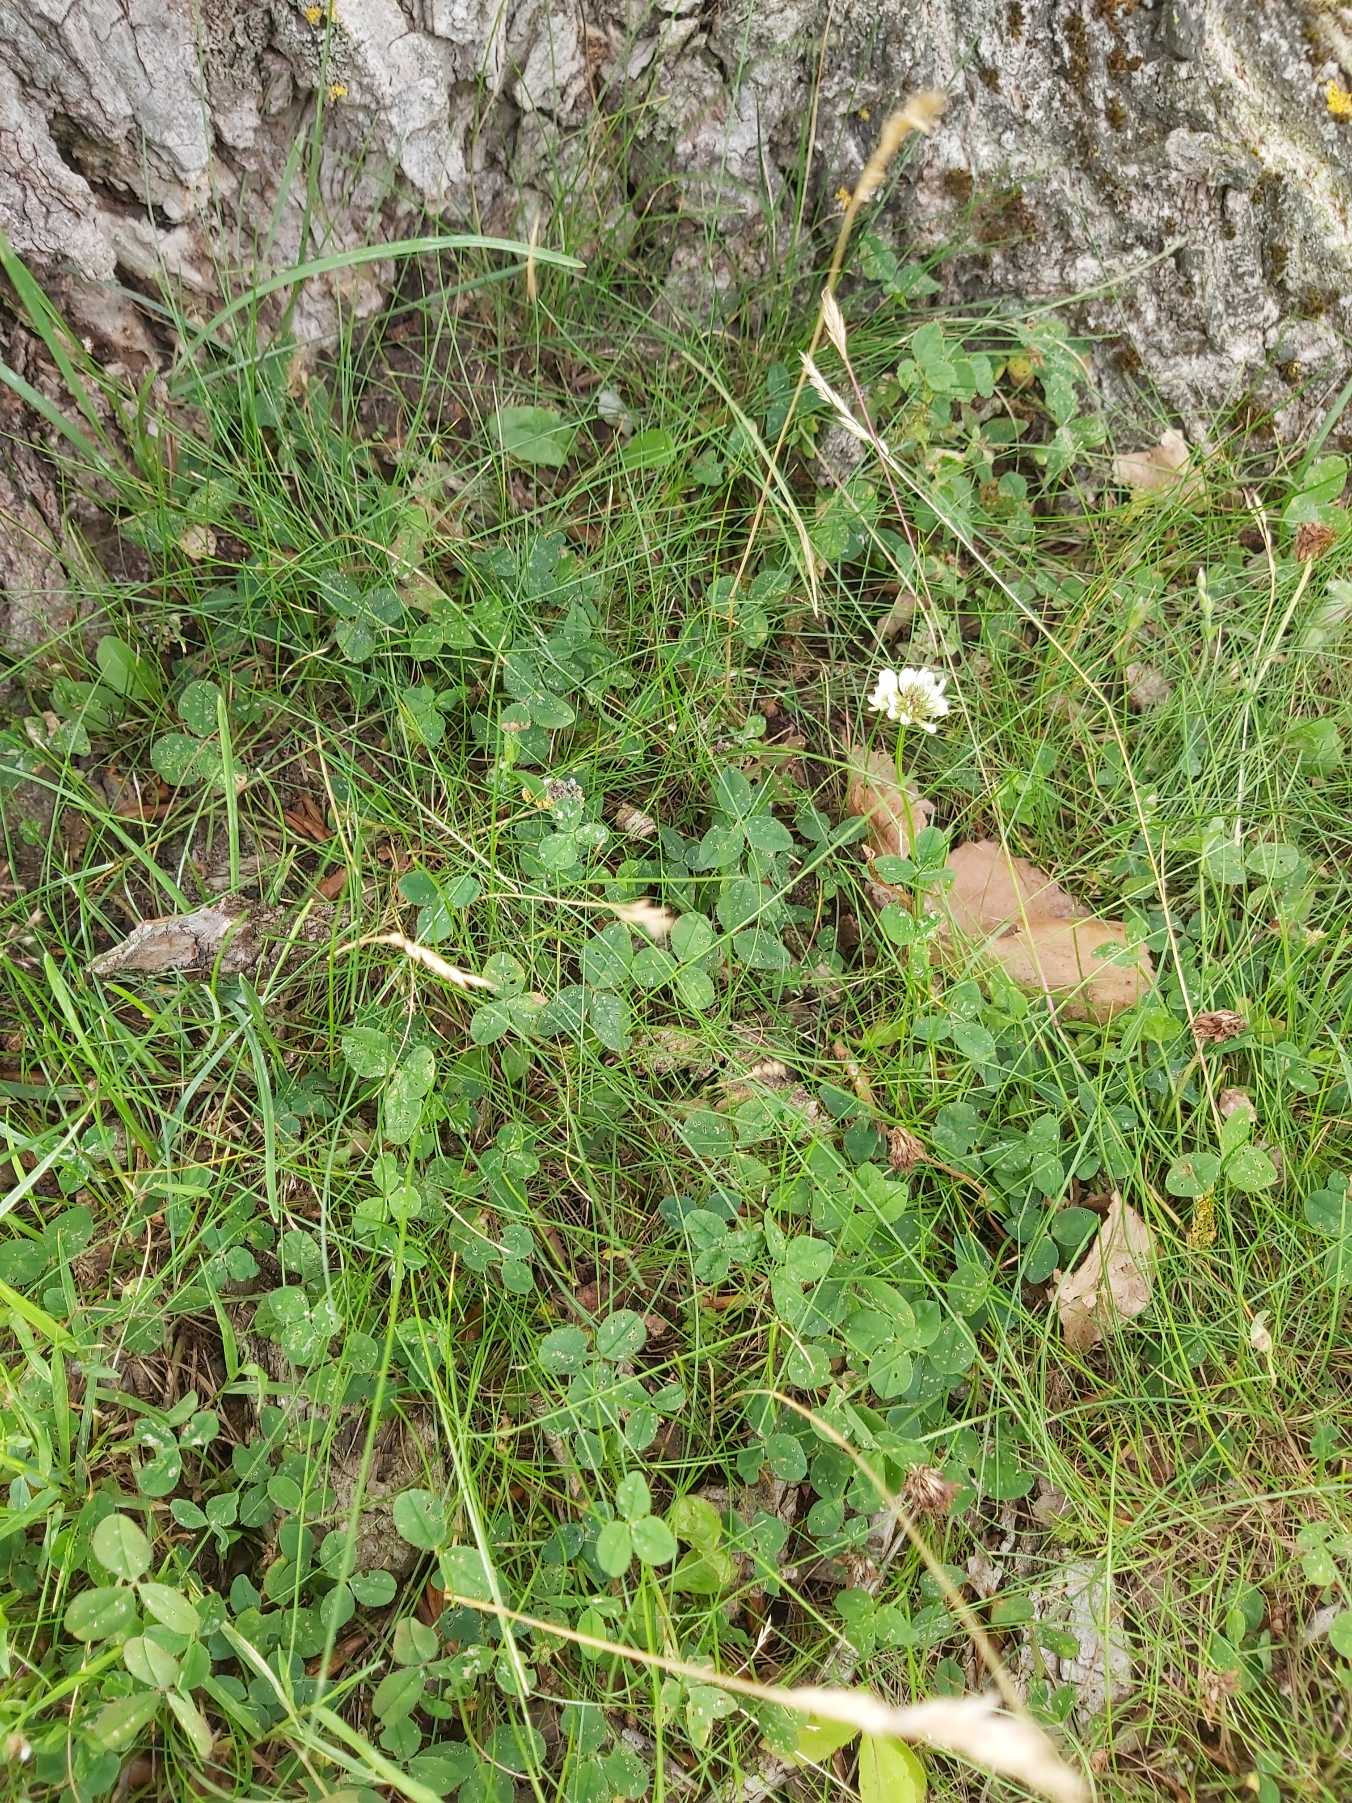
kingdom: Plantae
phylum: Tracheophyta
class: Magnoliopsida
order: Fabales
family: Fabaceae
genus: Trifolium
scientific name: Trifolium repens
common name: Hvid-kløver
